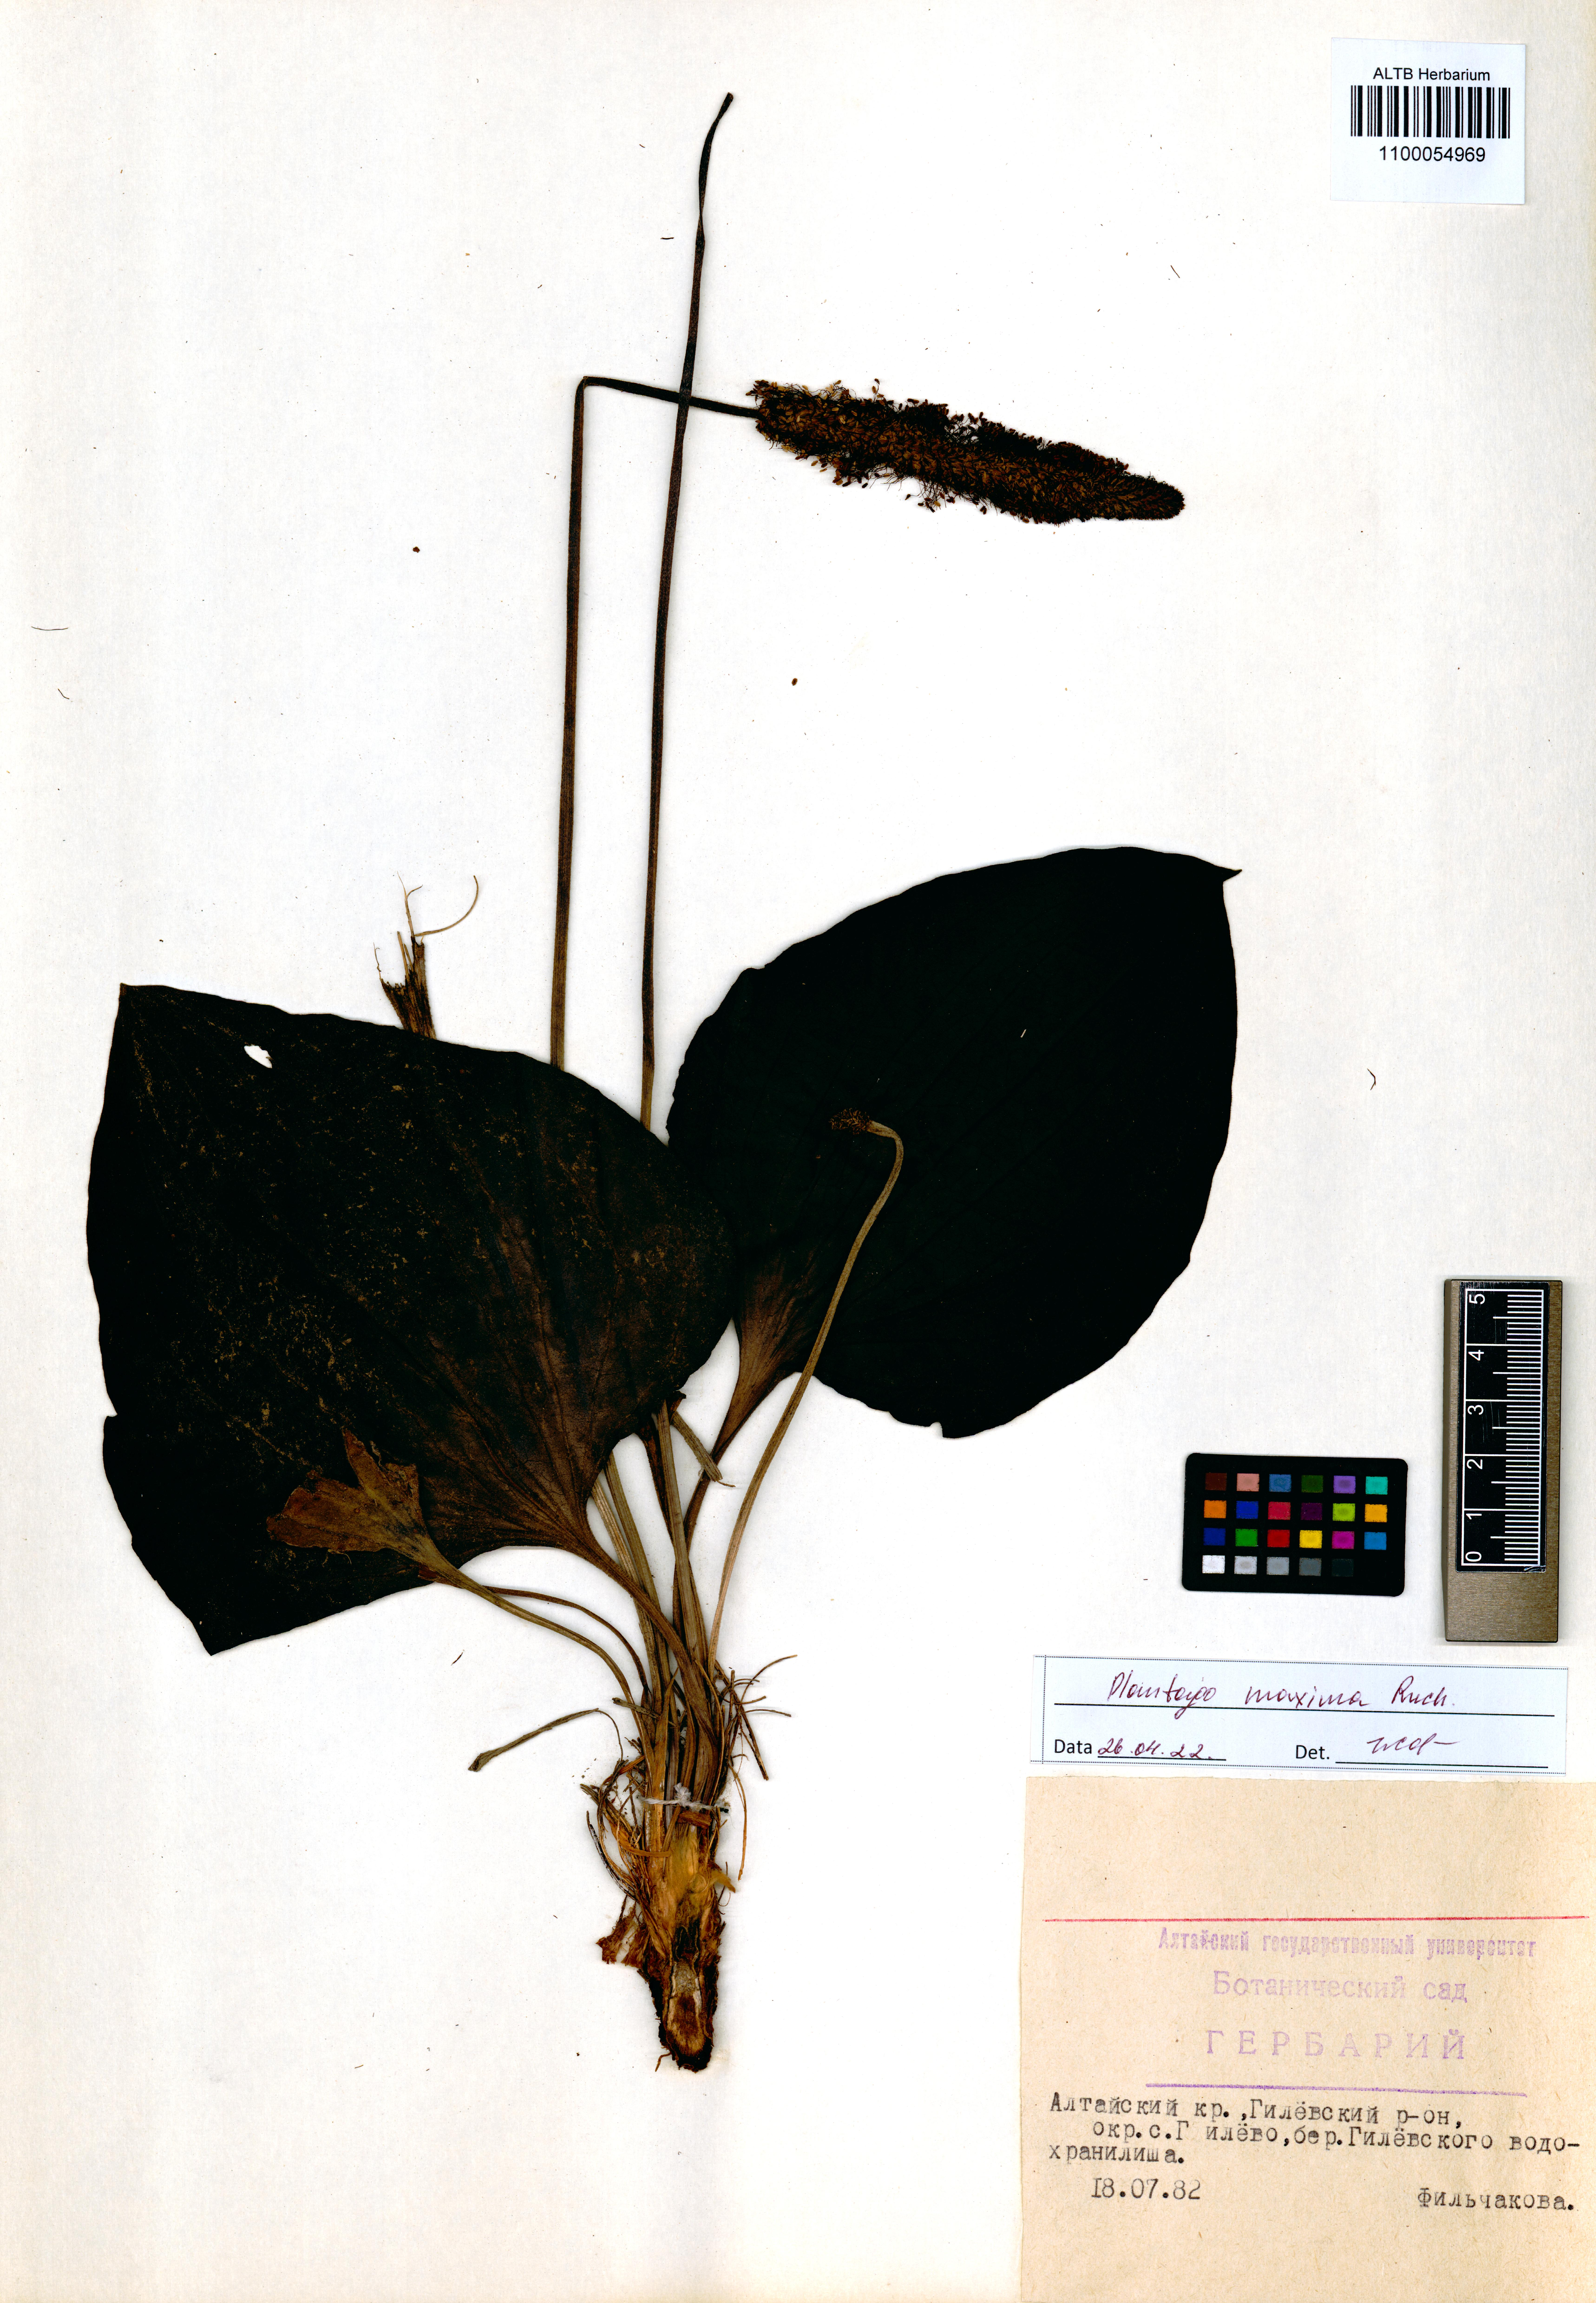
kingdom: Plantae
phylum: Tracheophyta
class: Magnoliopsida
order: Lamiales
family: Plantaginaceae
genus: Plantago
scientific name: Plantago maxima
